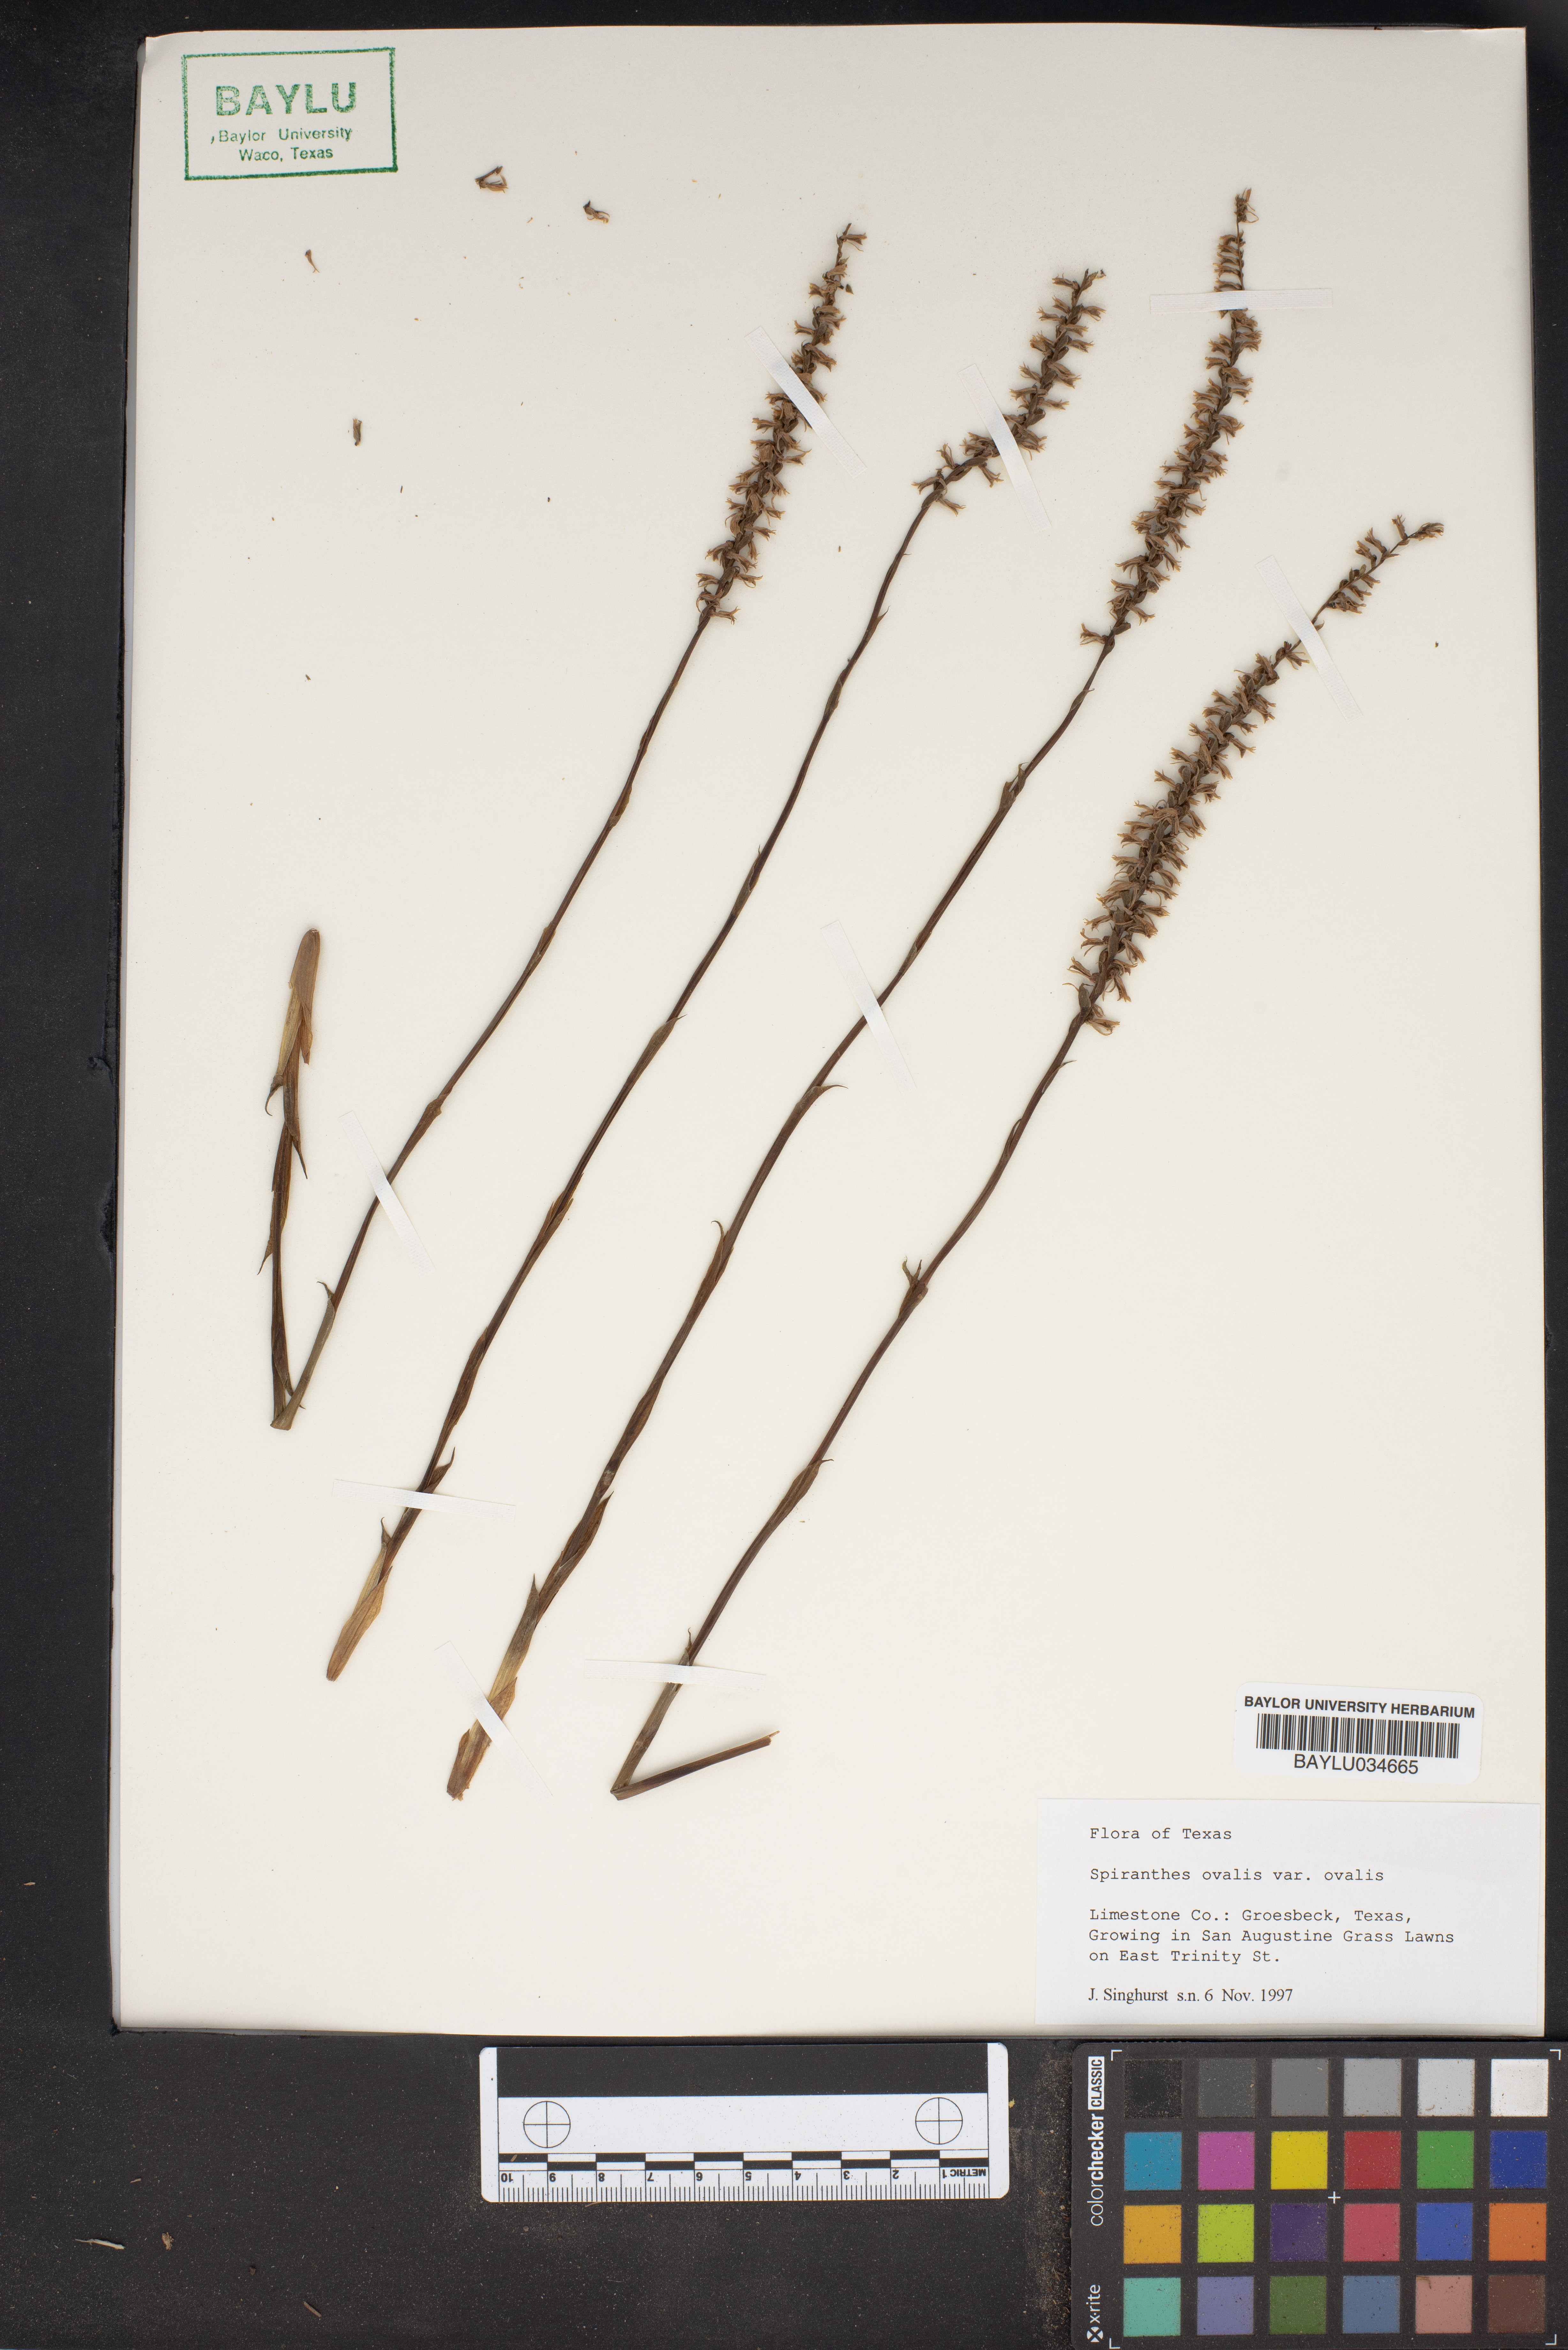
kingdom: Plantae
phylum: Tracheophyta
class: Liliopsida
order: Asparagales
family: Orchidaceae
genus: Spiranthes
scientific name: Spiranthes ovalis
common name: October ladies'-tresses
